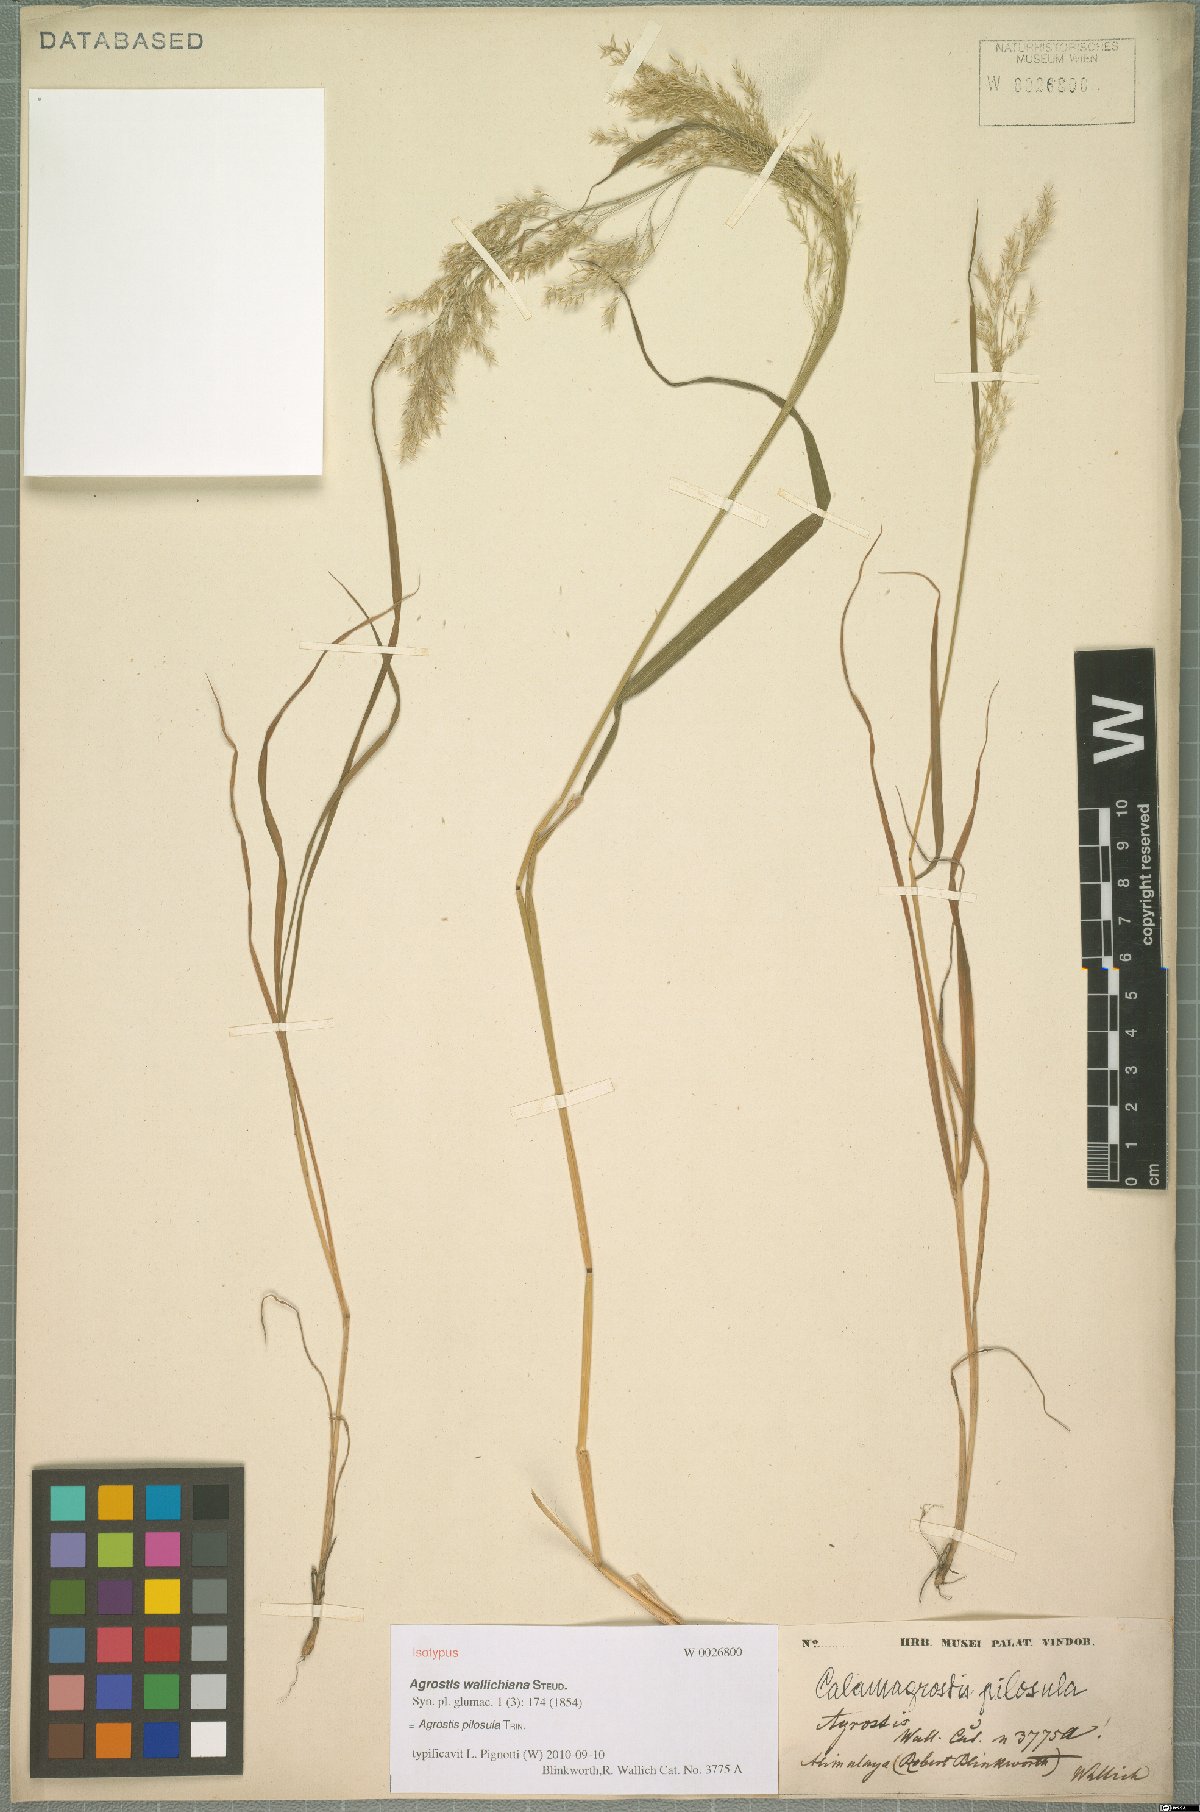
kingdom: Plantae
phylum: Tracheophyta
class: Liliopsida
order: Poales
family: Poaceae
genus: Agrostis
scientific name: Agrostis pilosula
